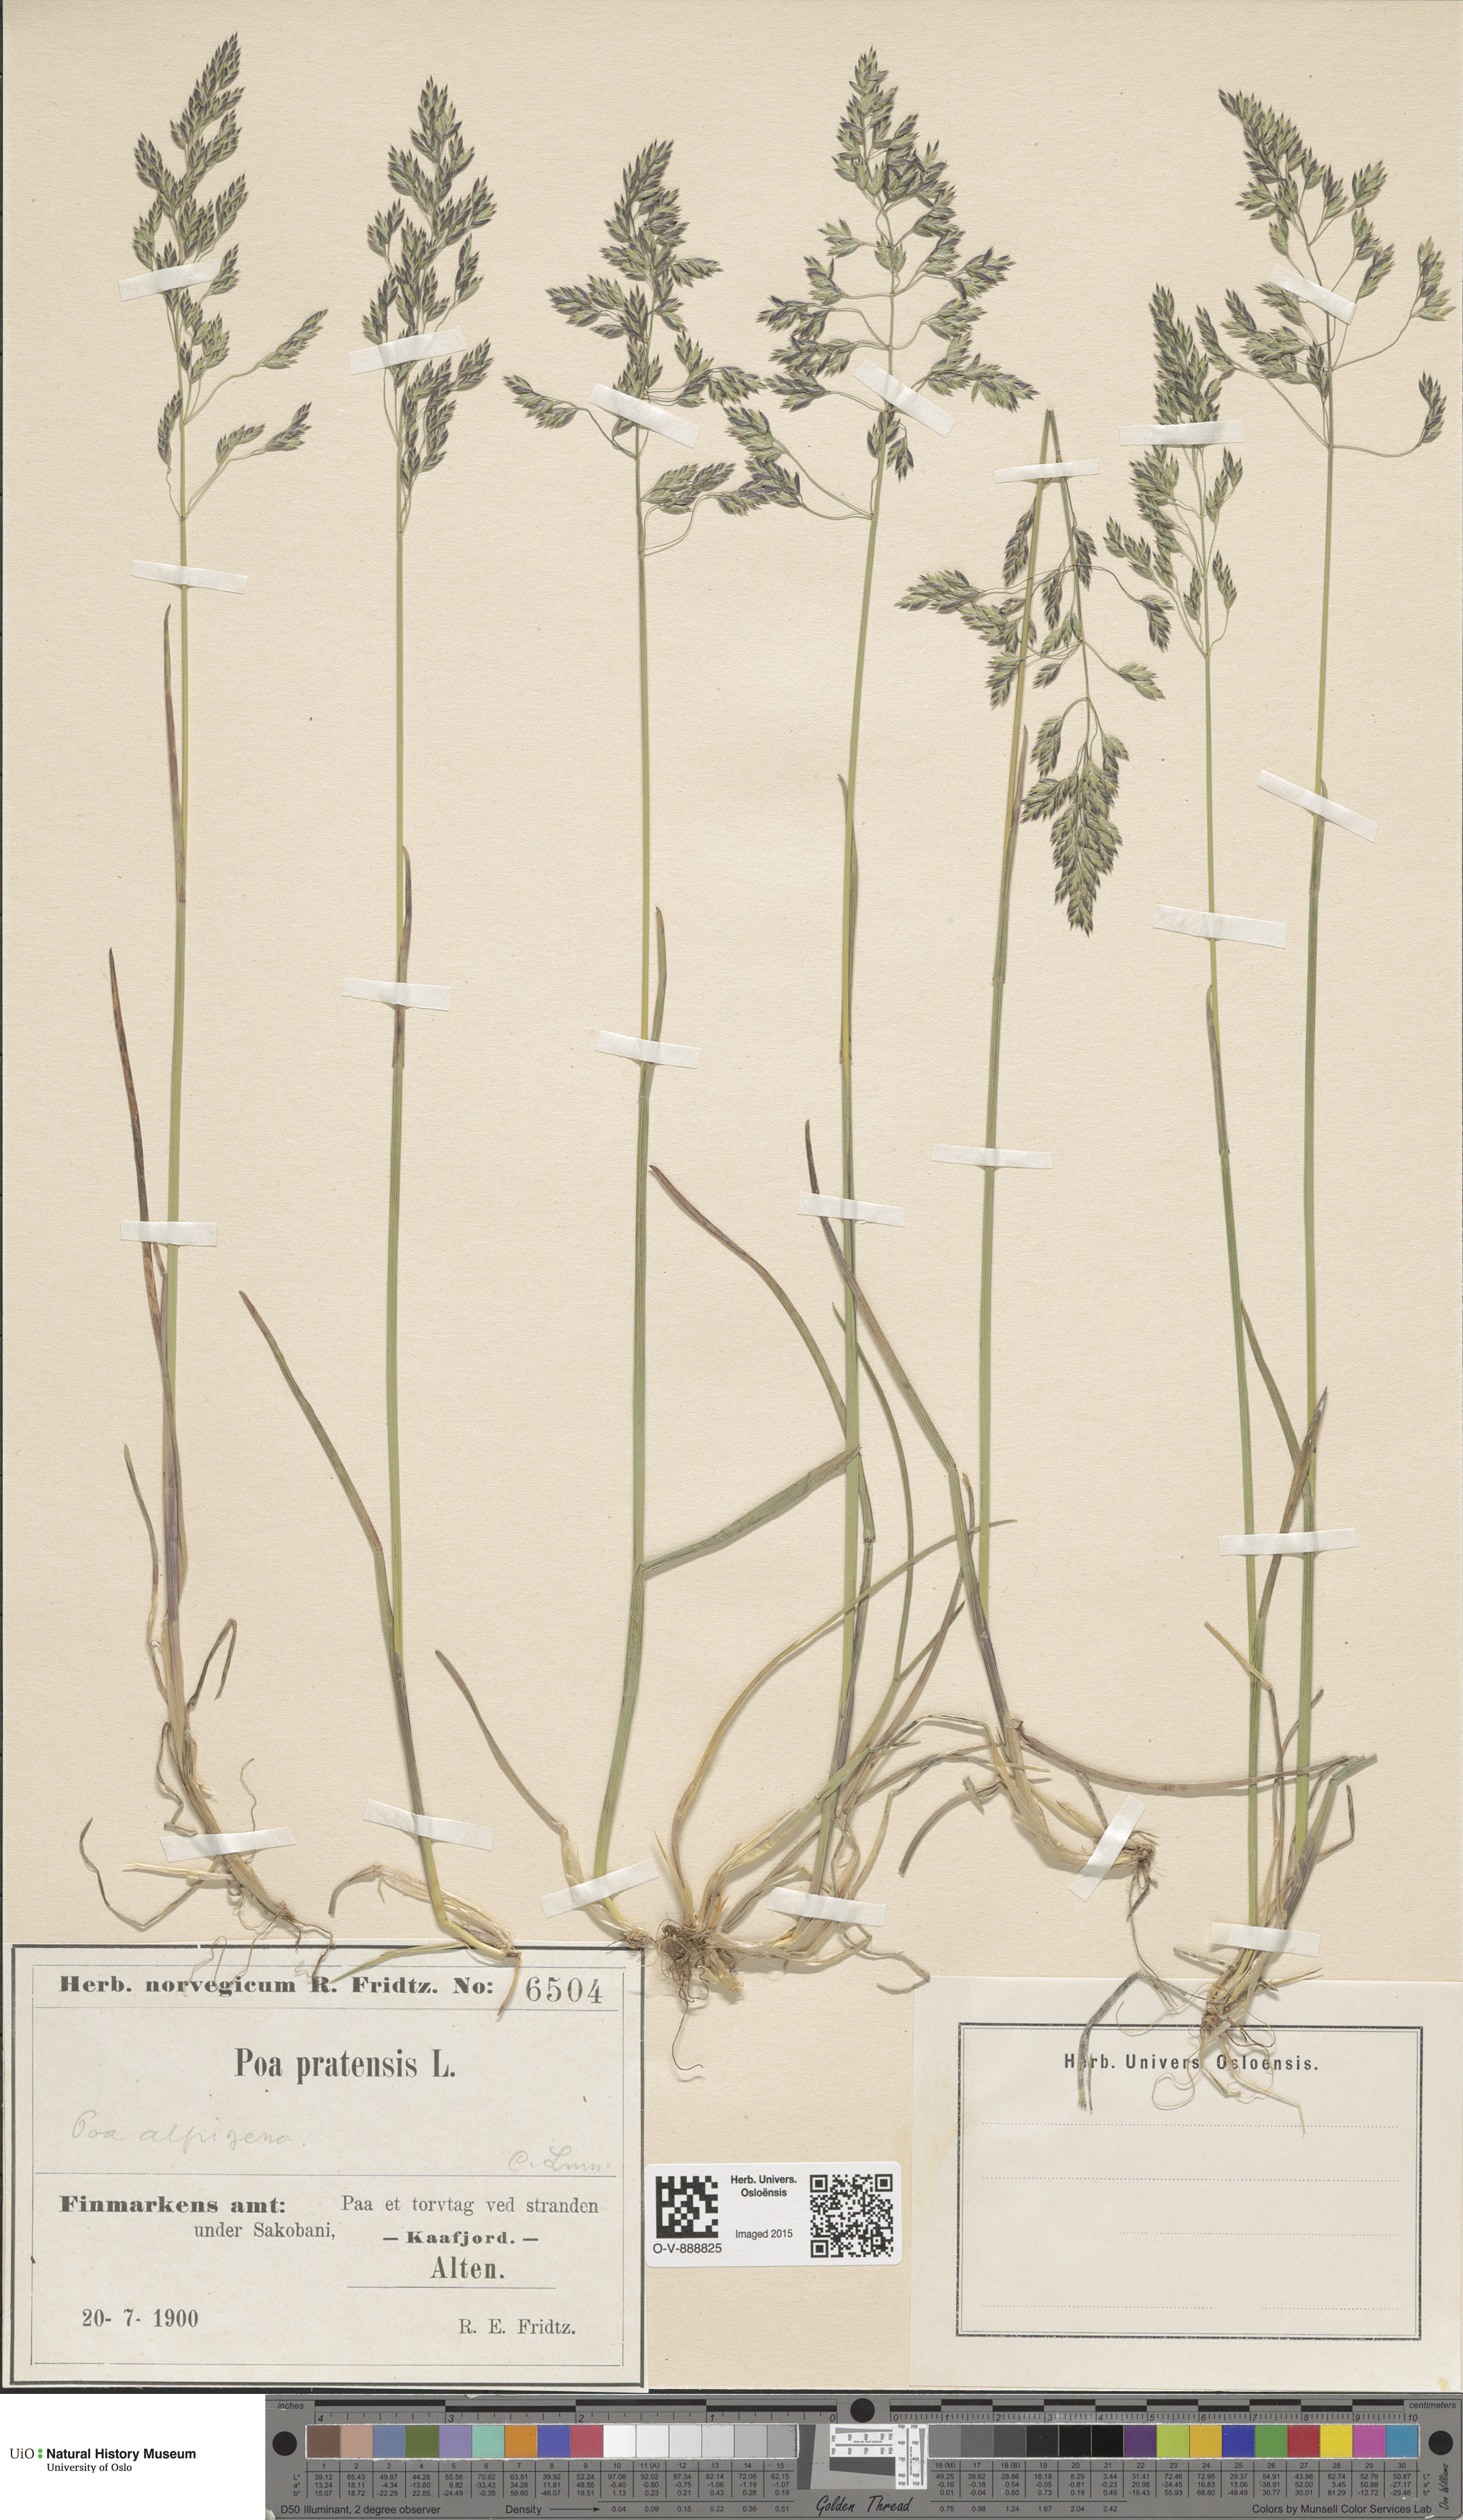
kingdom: Plantae
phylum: Tracheophyta
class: Liliopsida
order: Poales
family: Poaceae
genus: Poa
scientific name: Poa pratensis
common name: Kentucky bluegrass
